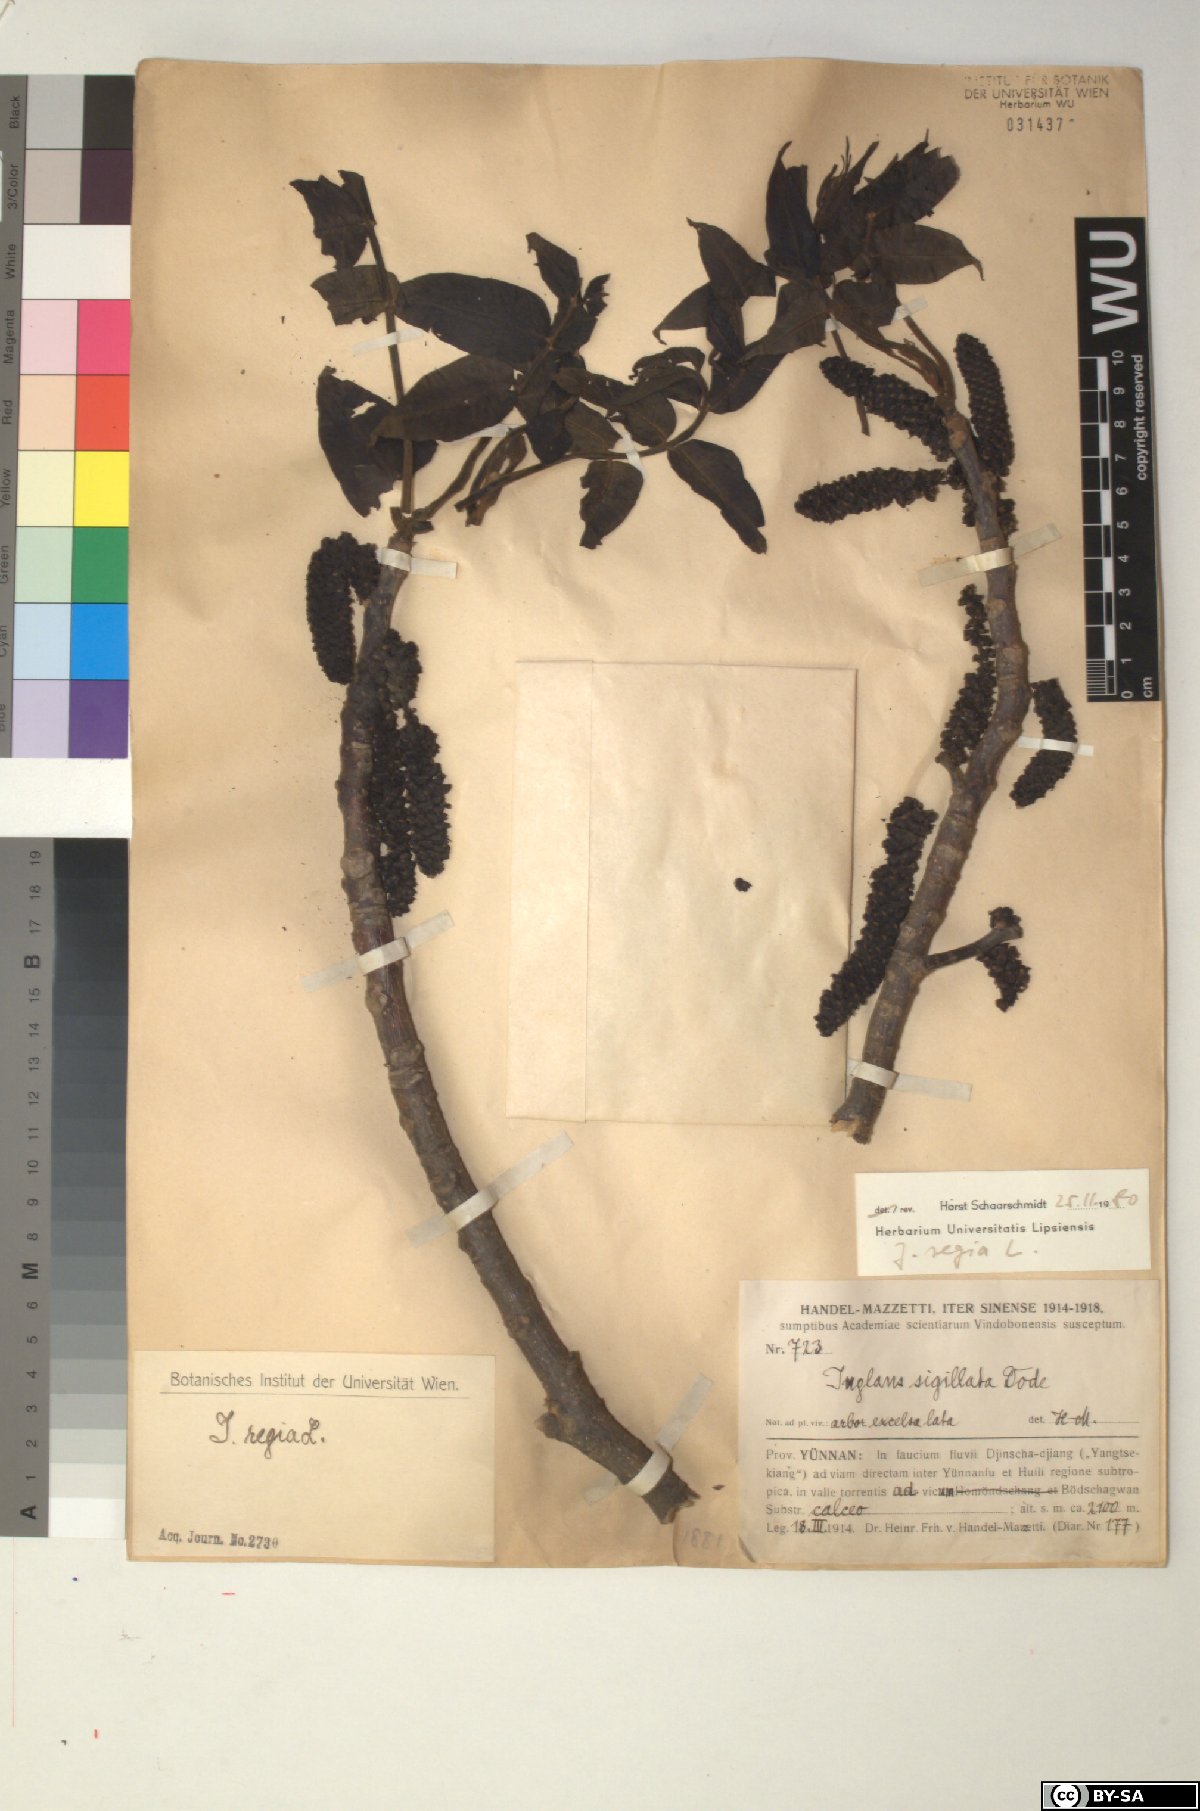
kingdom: Plantae
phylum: Tracheophyta
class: Magnoliopsida
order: Fagales
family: Juglandaceae
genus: Juglans
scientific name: Juglans regia
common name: Walnut
